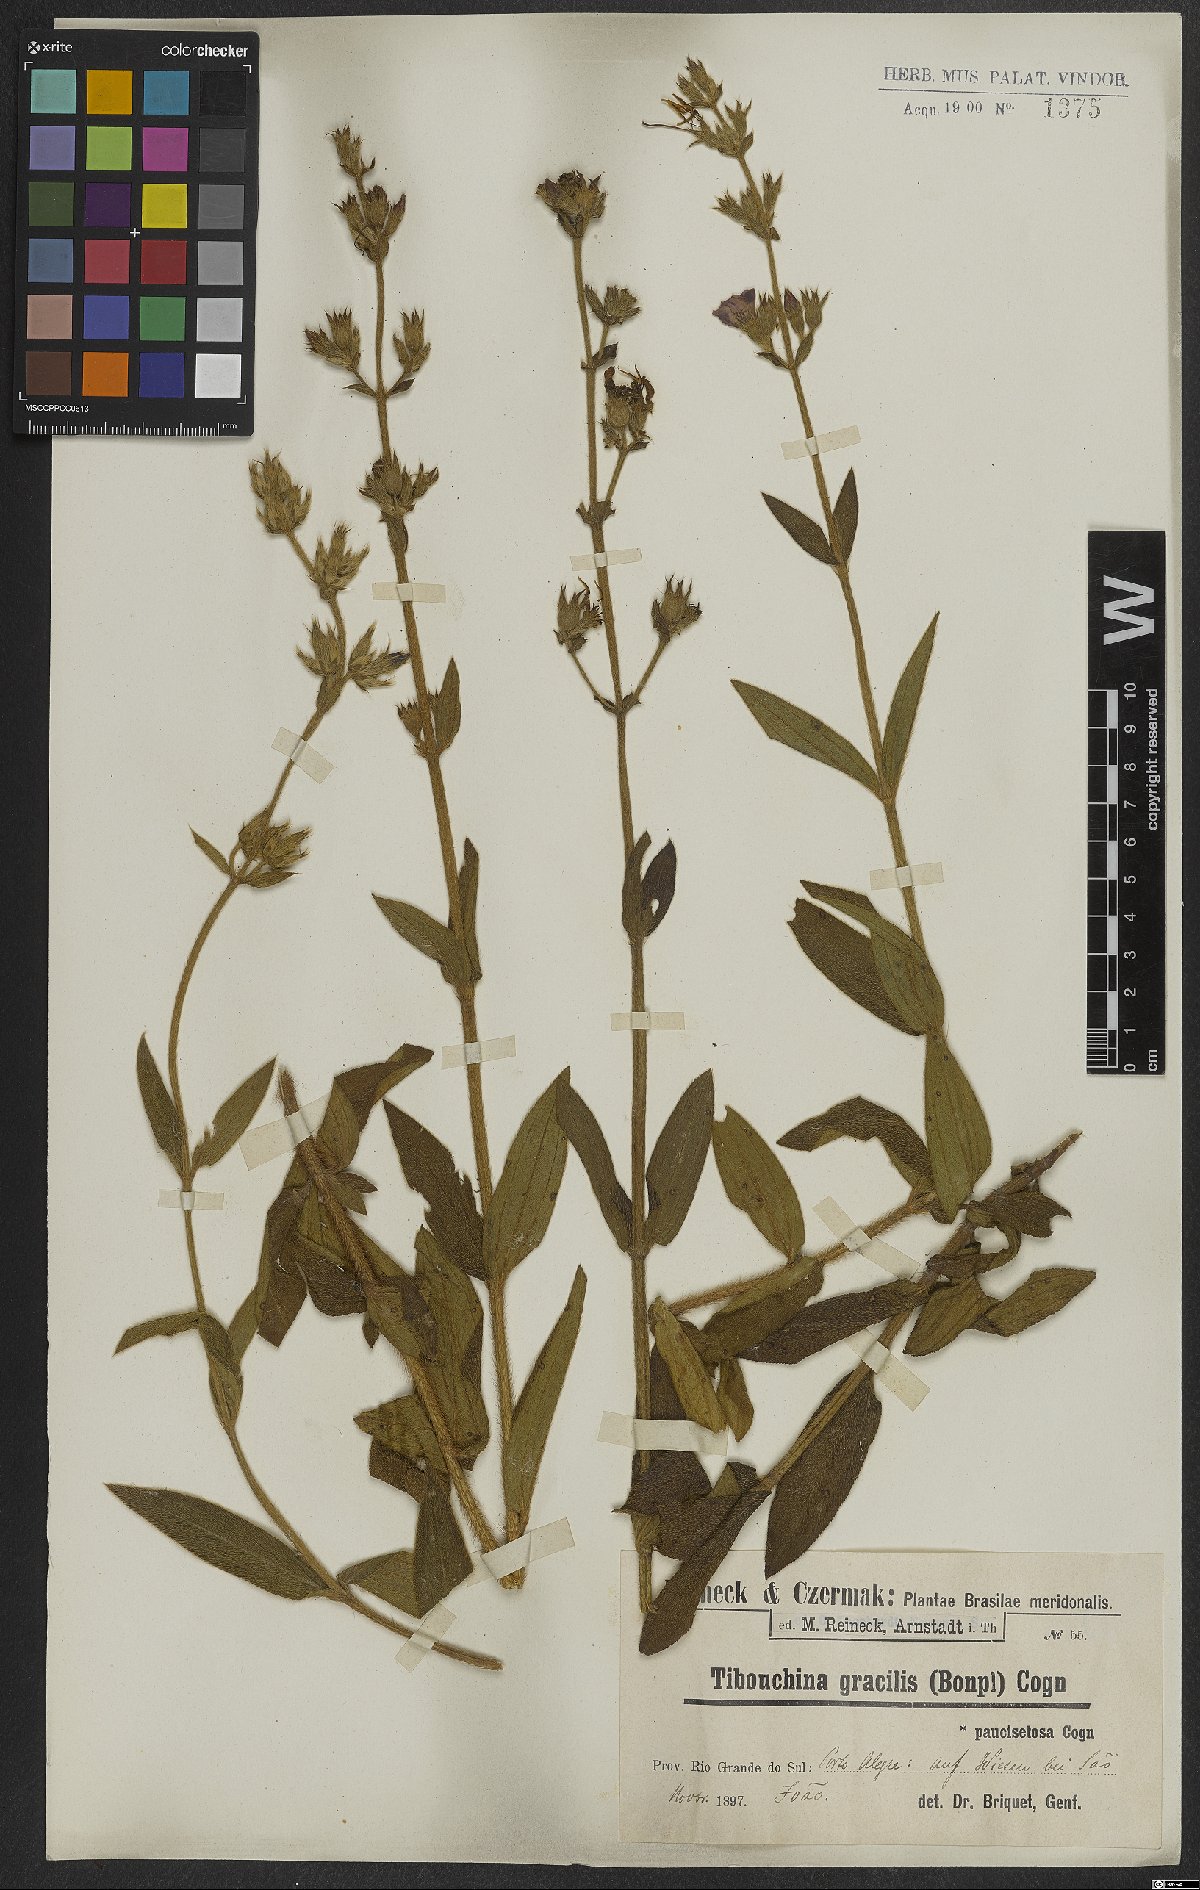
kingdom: Plantae
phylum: Tracheophyta
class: Magnoliopsida
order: Myrtales
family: Melastomataceae
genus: Chaetogastra
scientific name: Chaetogastra gracilis
